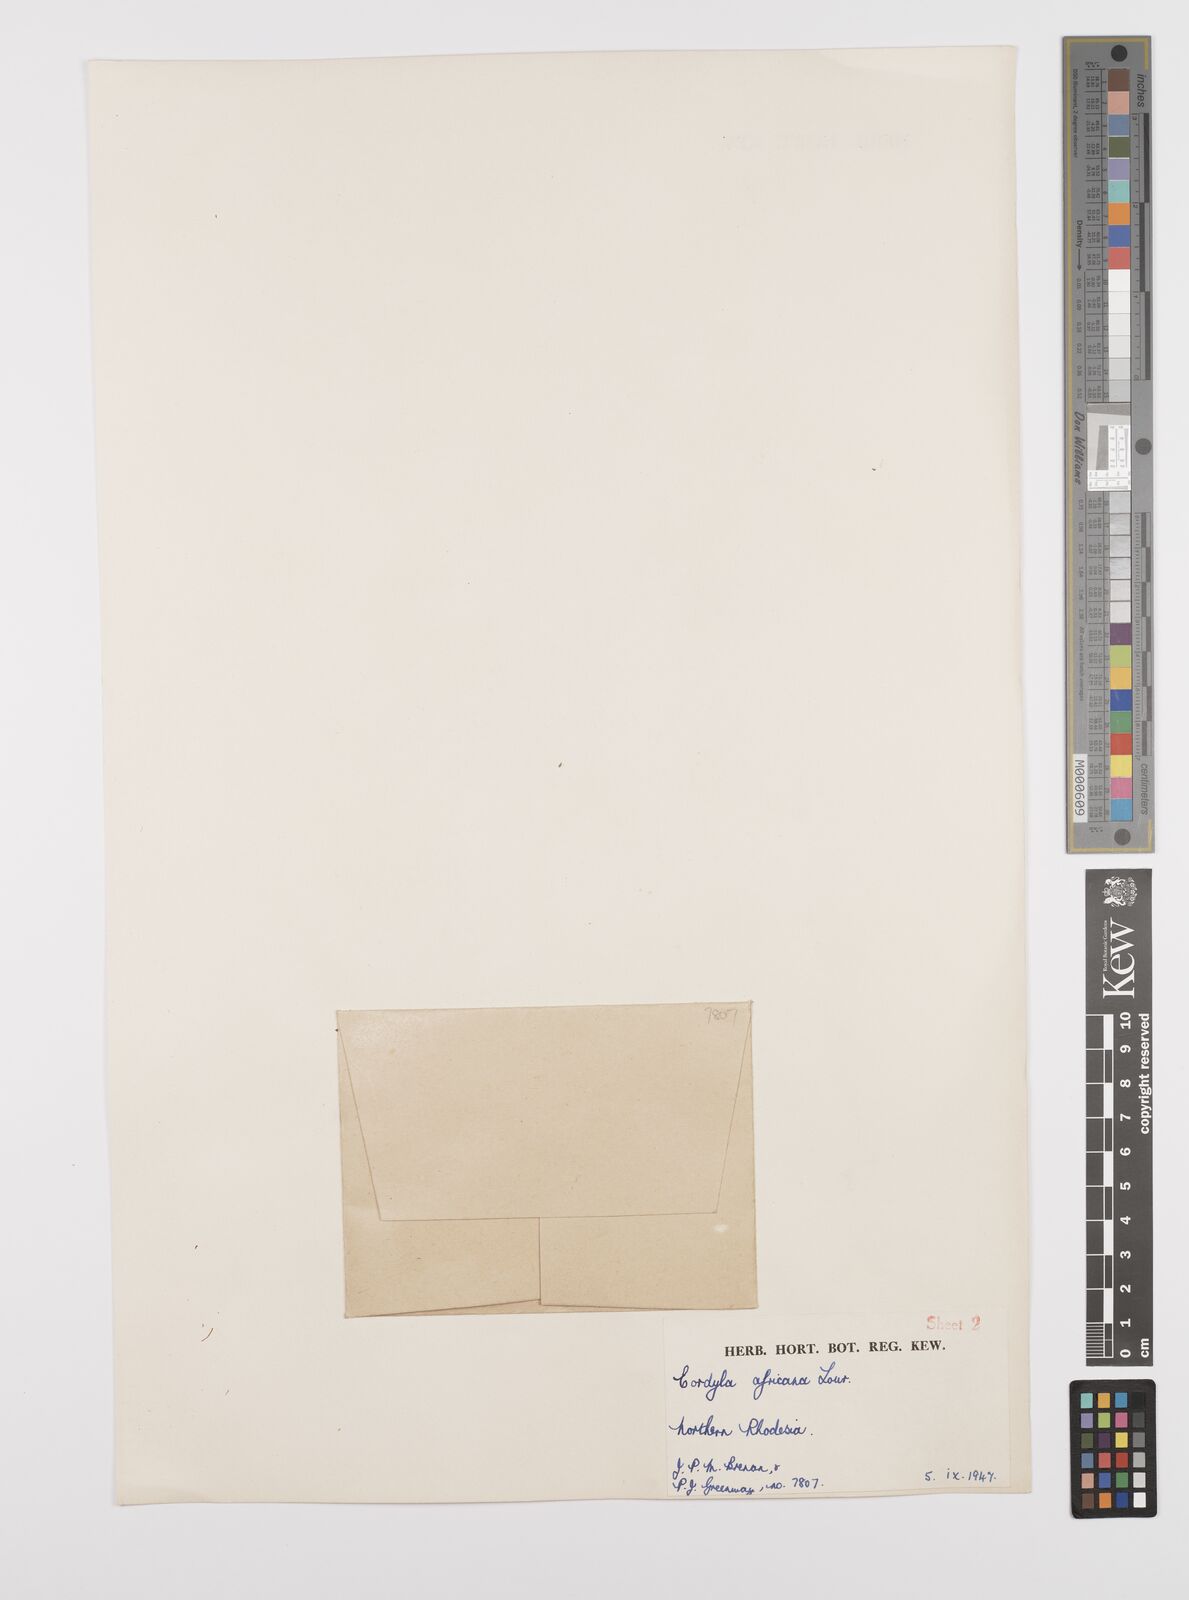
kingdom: Plantae
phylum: Tracheophyta
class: Magnoliopsida
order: Fabales
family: Fabaceae
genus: Cordyla
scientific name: Cordyla africana
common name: Wild mango
